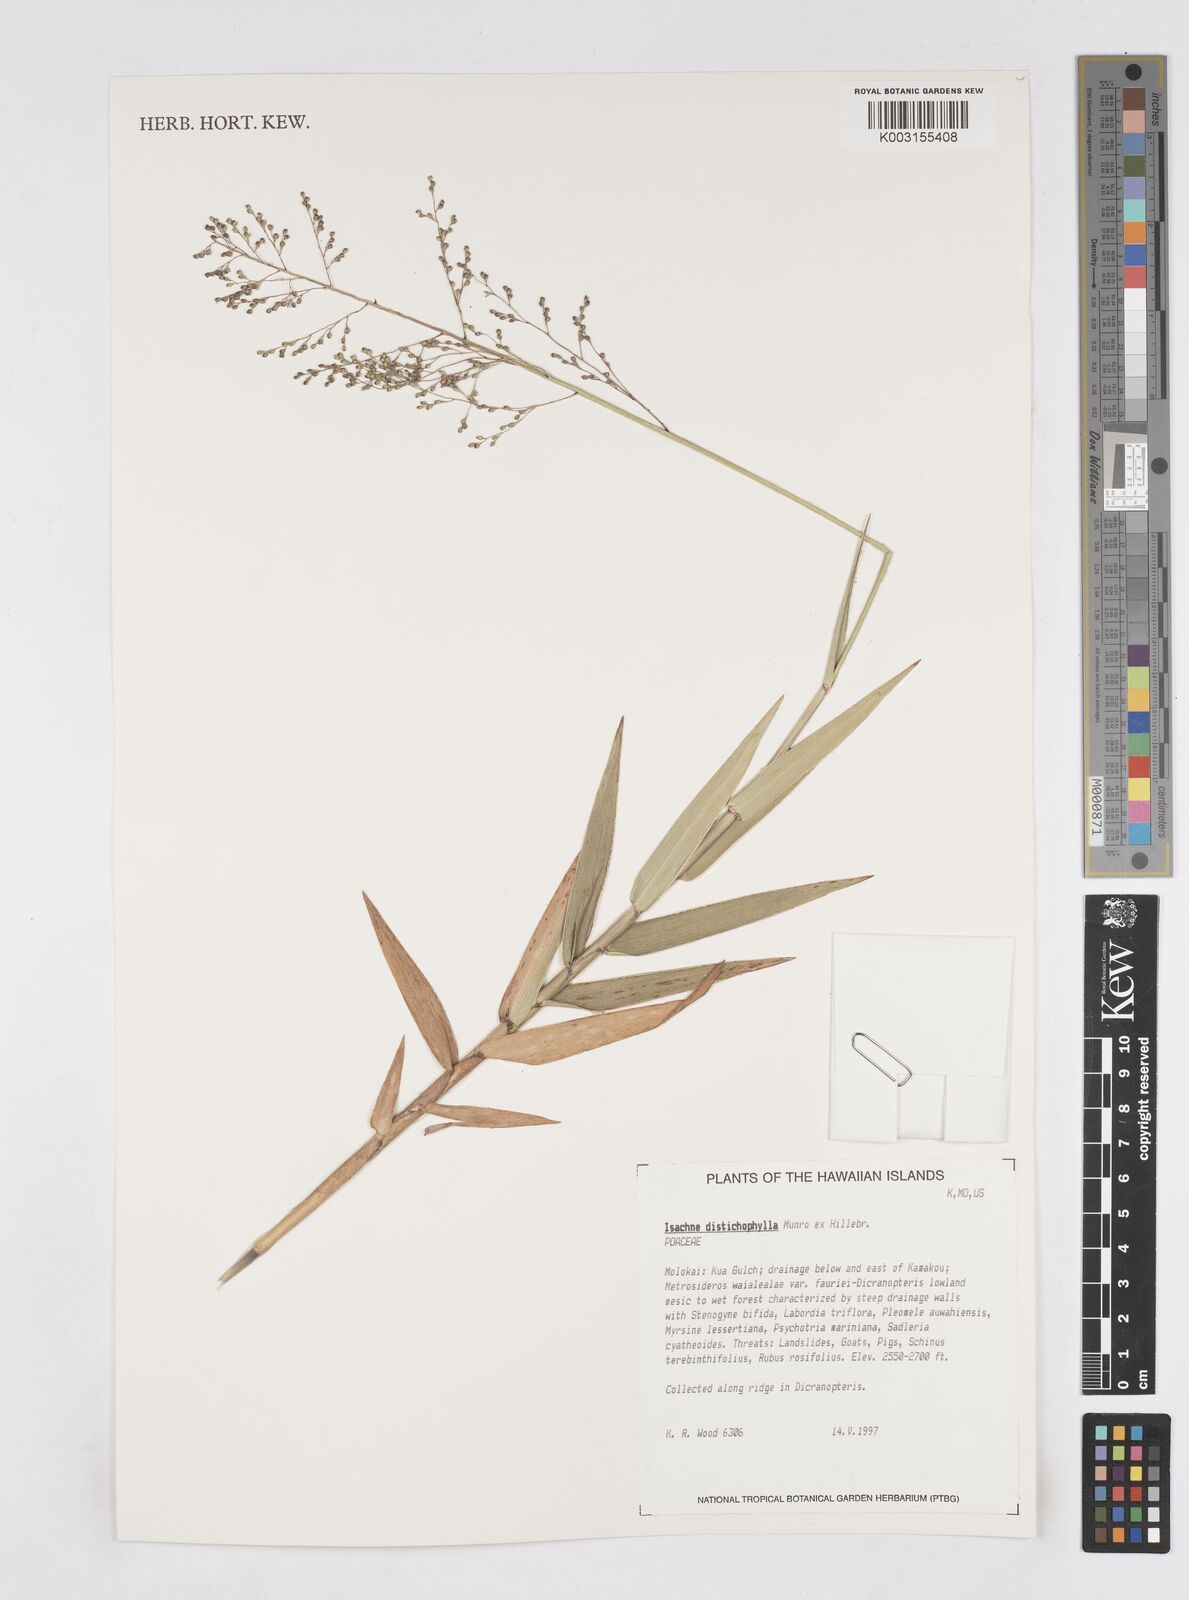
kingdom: Plantae
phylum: Tracheophyta
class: Liliopsida
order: Poales
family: Poaceae
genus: Isachne
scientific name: Isachne distichophylla
